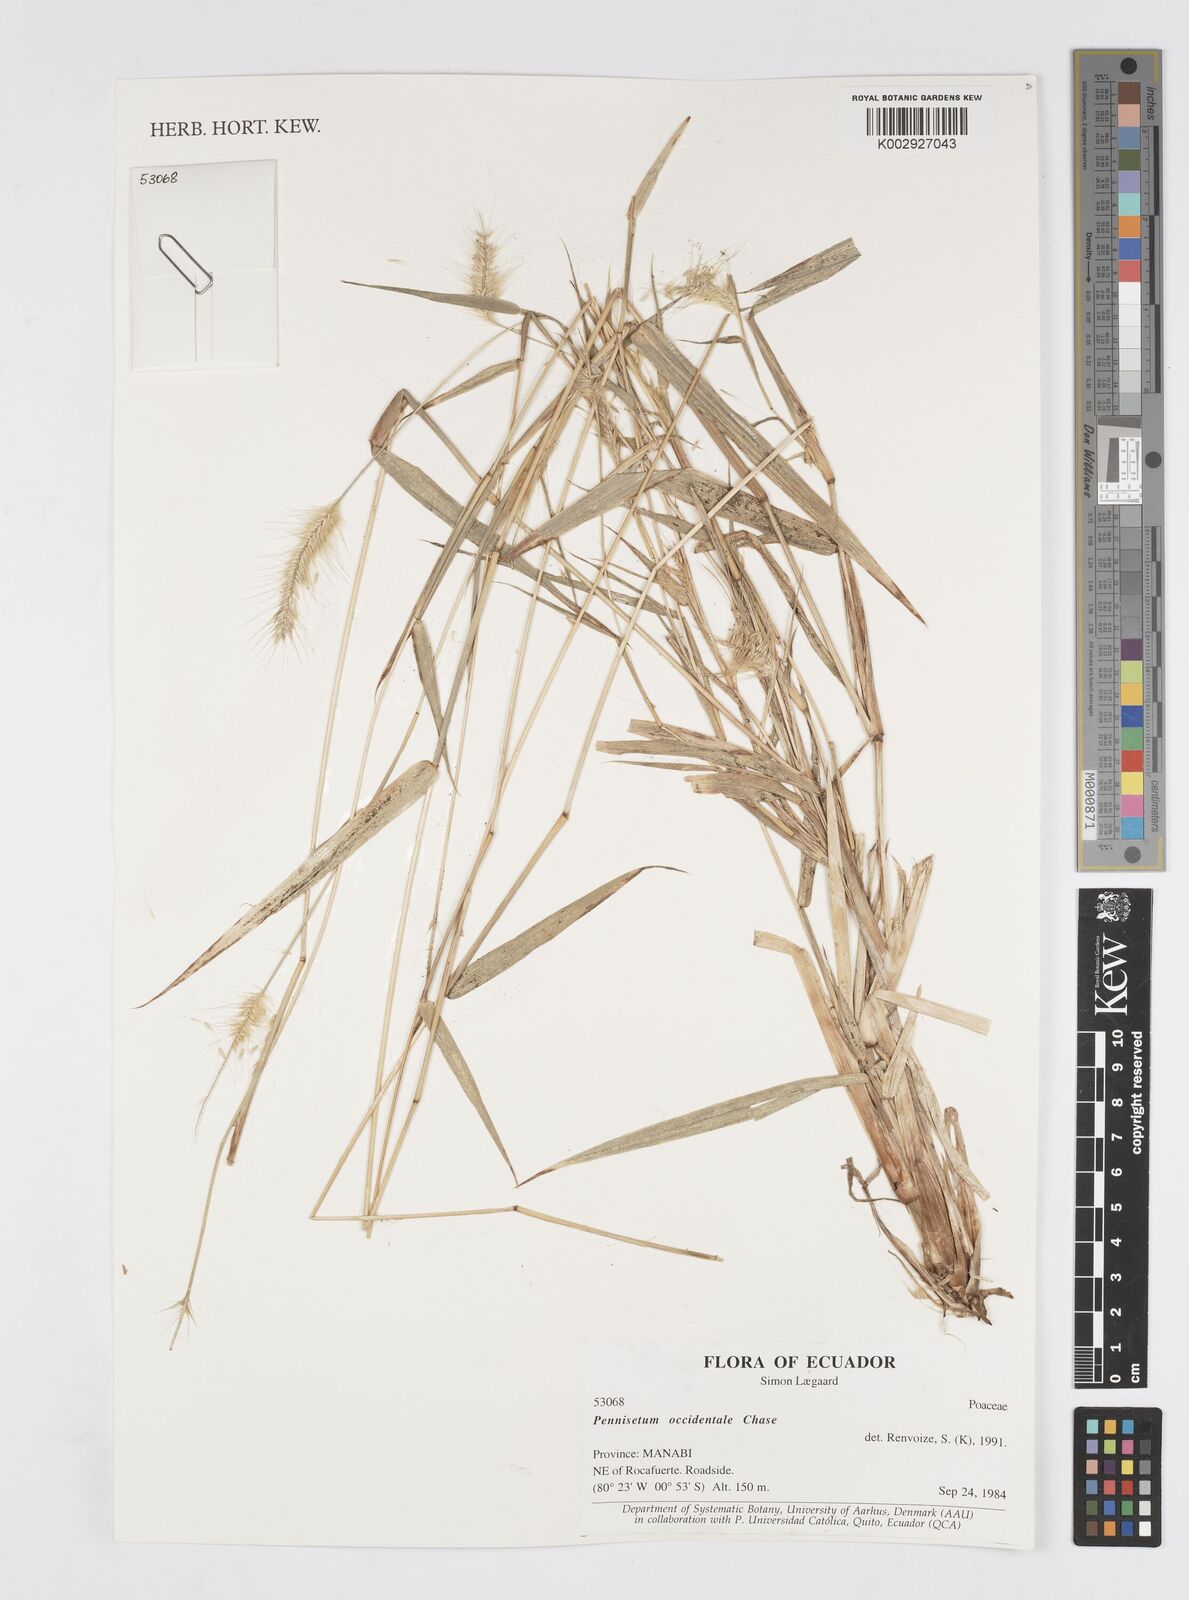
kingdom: Plantae
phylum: Tracheophyta
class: Liliopsida
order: Poales
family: Poaceae
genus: Cenchrus
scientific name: Cenchrus occidentalis
